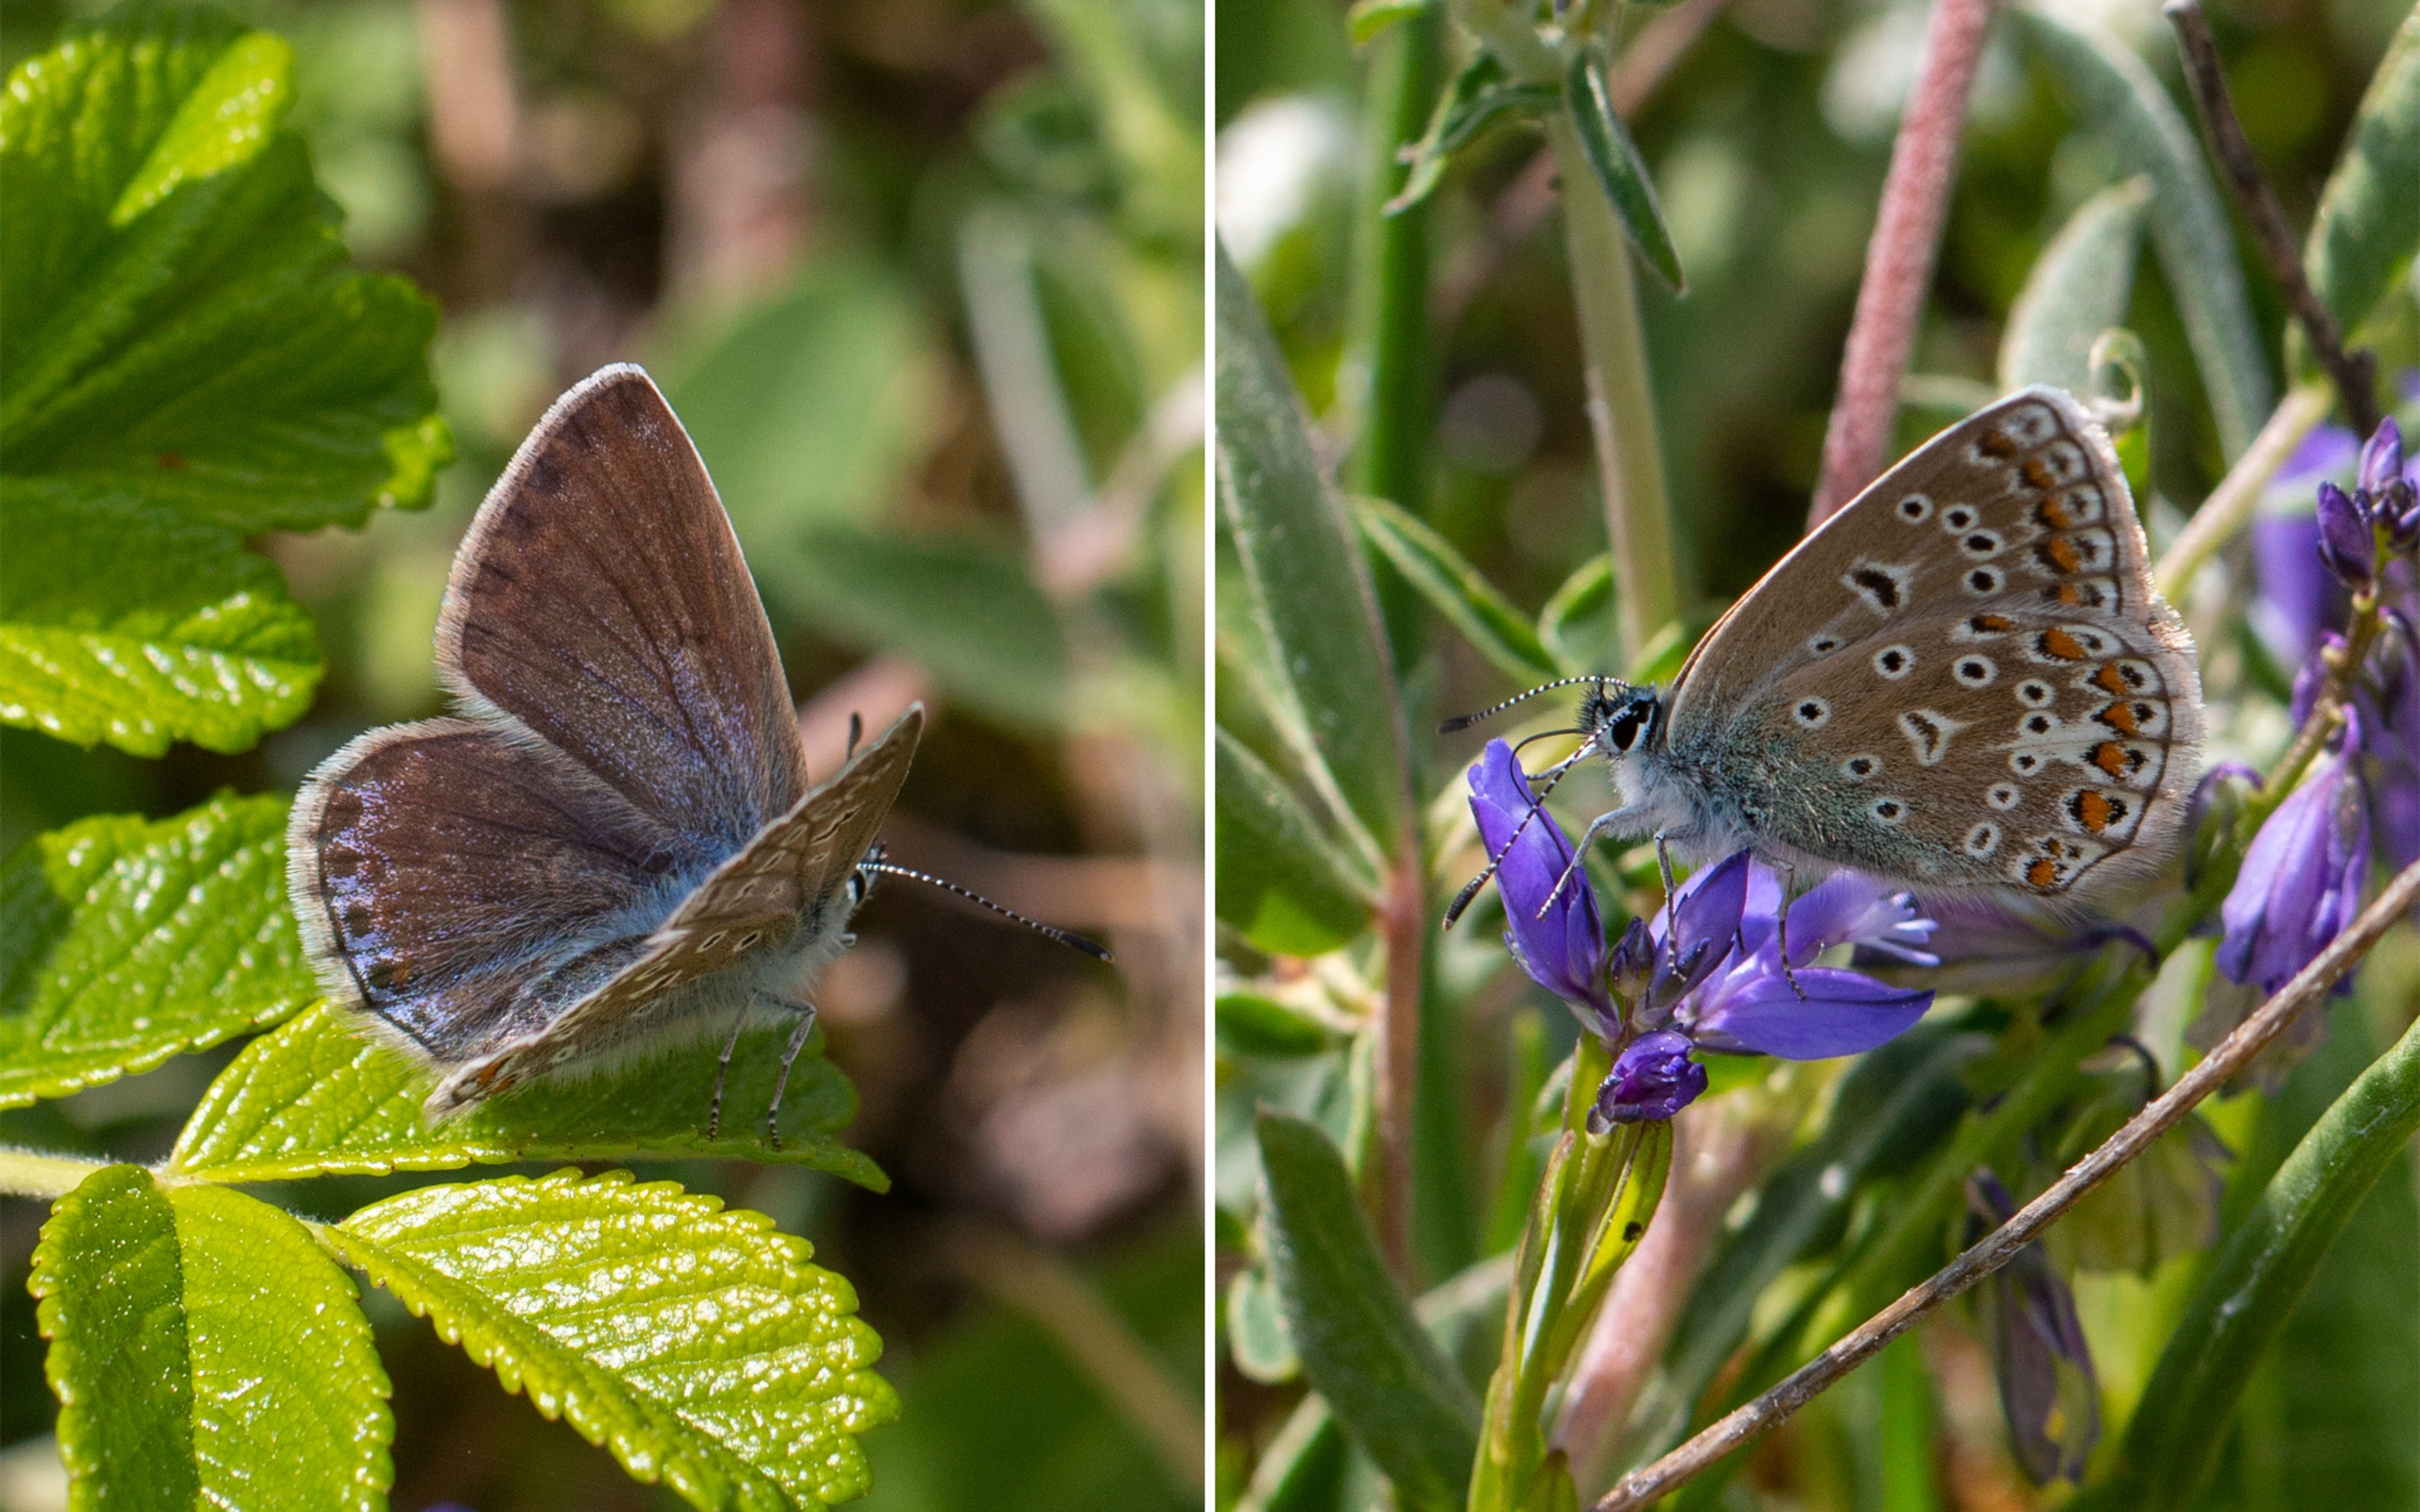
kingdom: Animalia
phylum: Arthropoda
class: Insecta
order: Lepidoptera
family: Lycaenidae
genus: Polyommatus
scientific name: Polyommatus icarus
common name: Almindelig blåfugl
